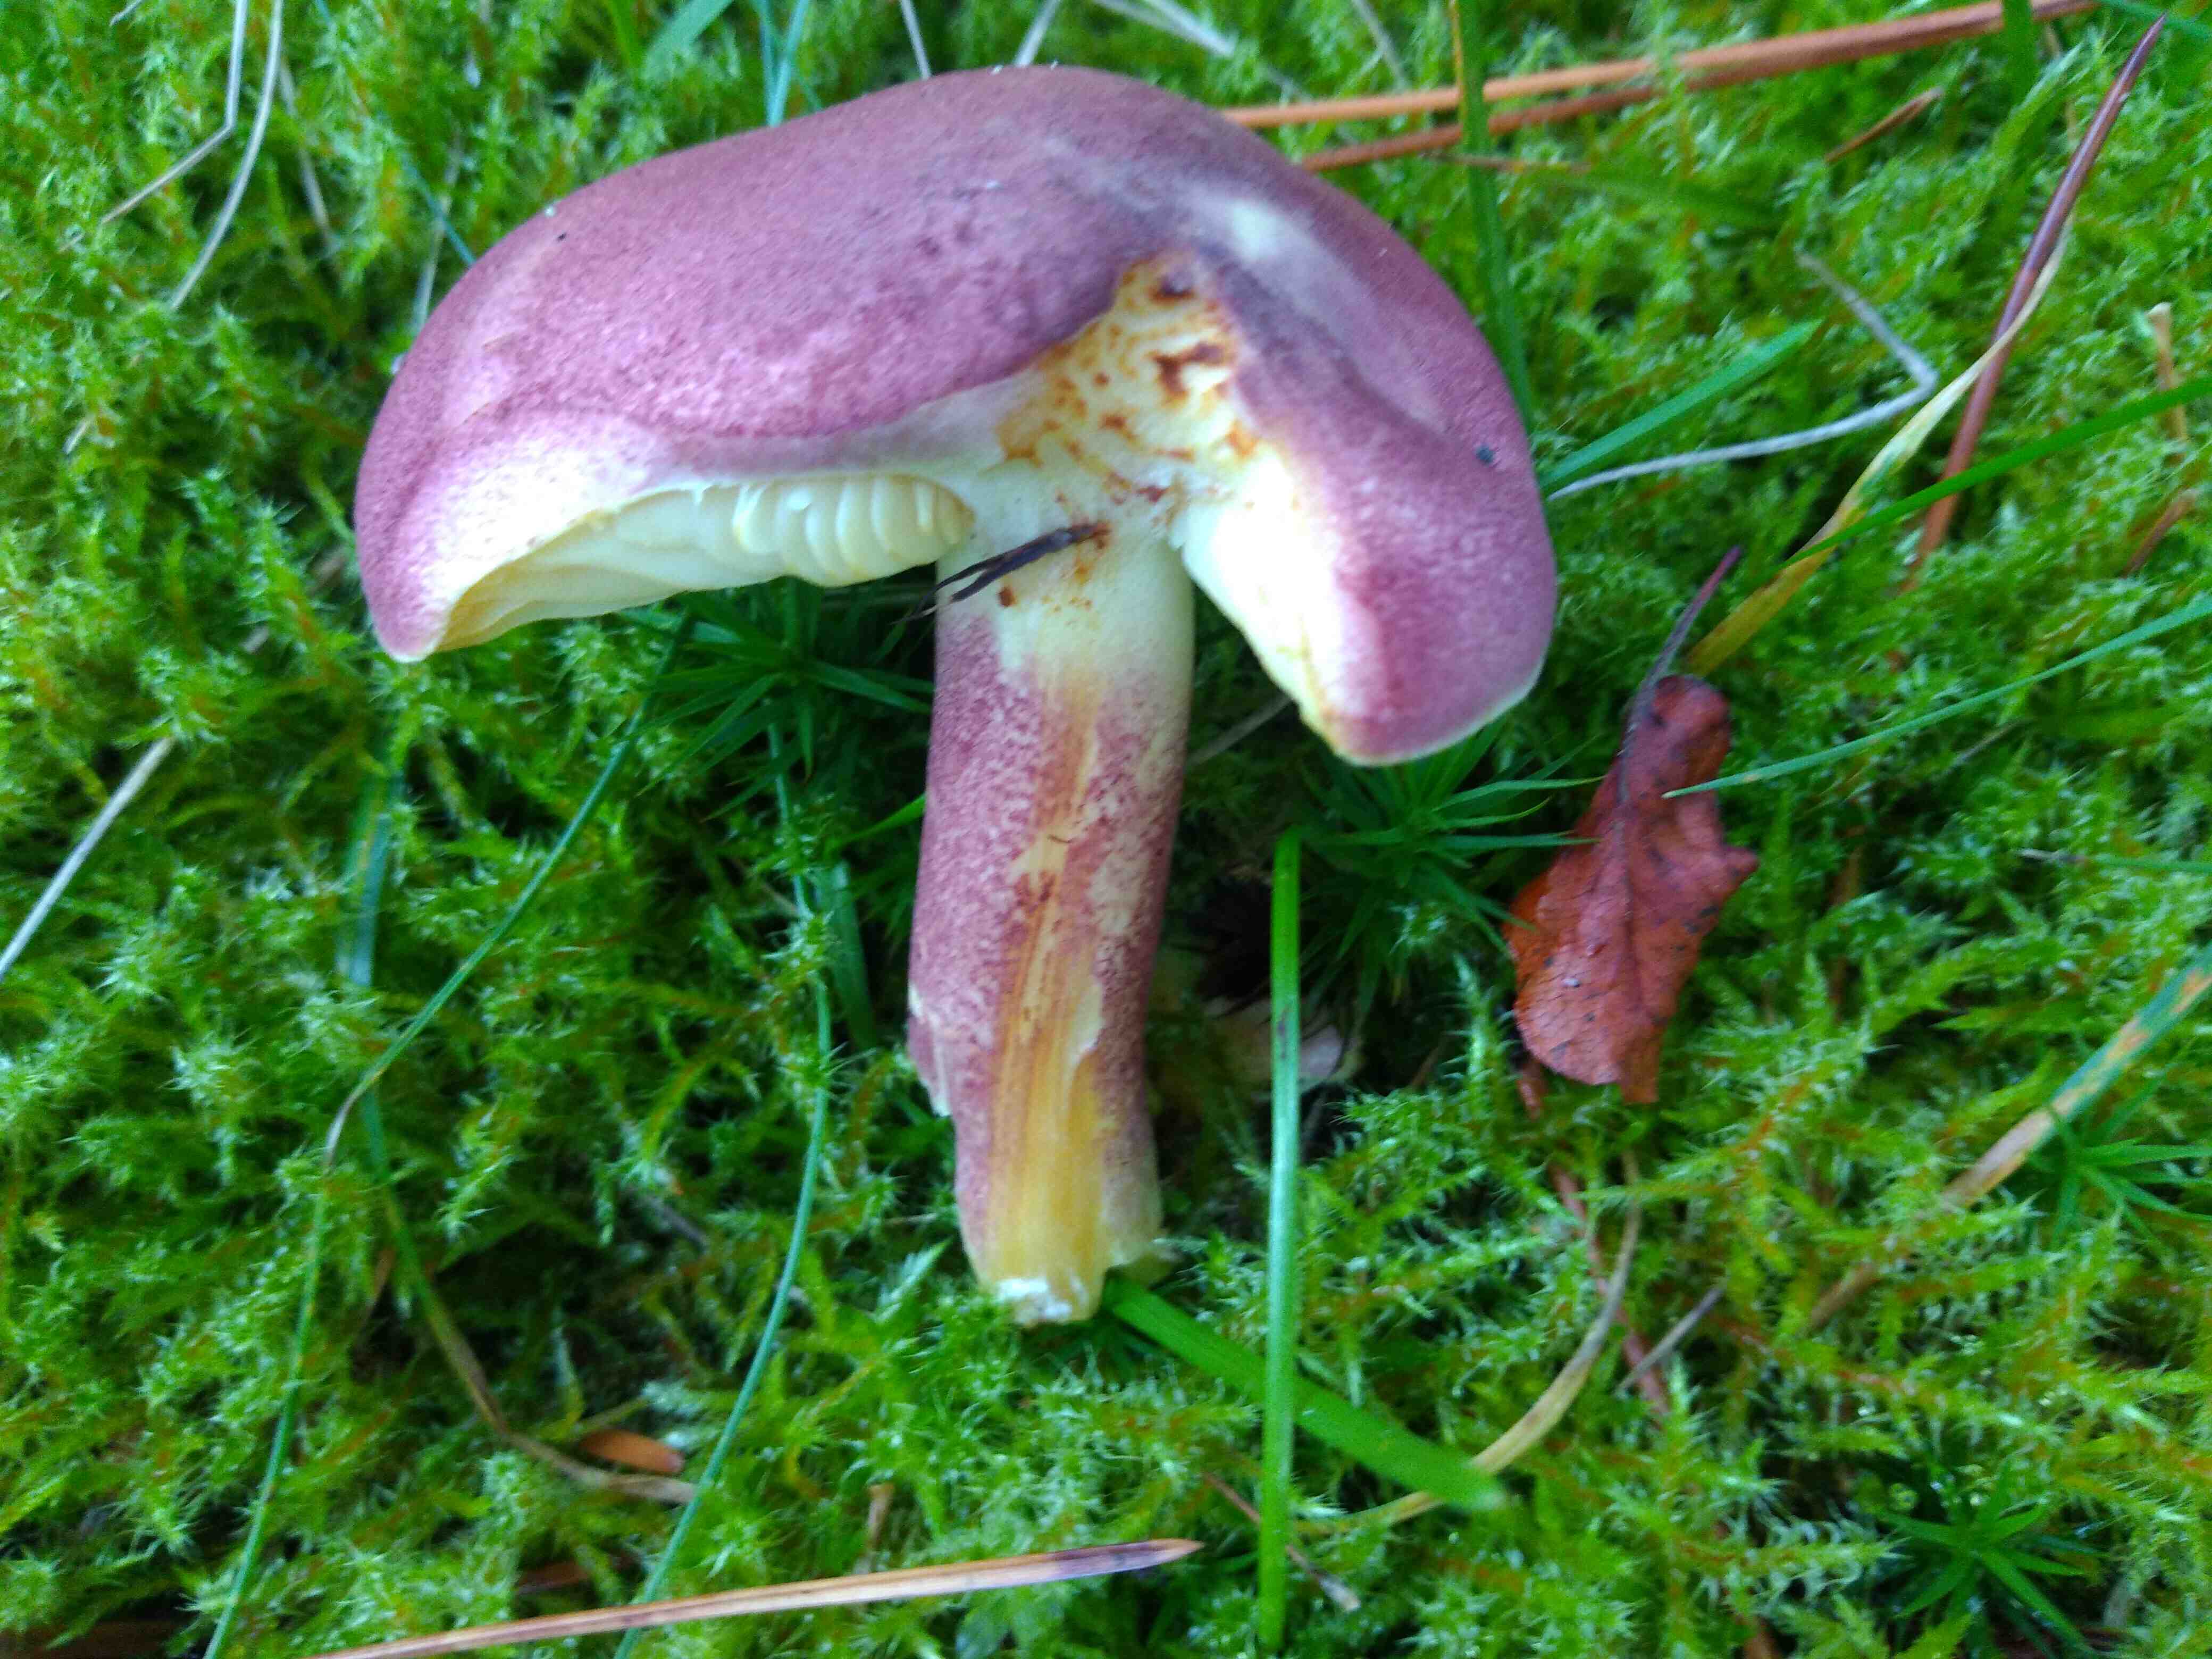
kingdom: Fungi
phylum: Basidiomycota
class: Agaricomycetes
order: Agaricales
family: Tricholomataceae
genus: Tricholomopsis
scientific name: Tricholomopsis rutilans
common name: purpur-væbnerhat
